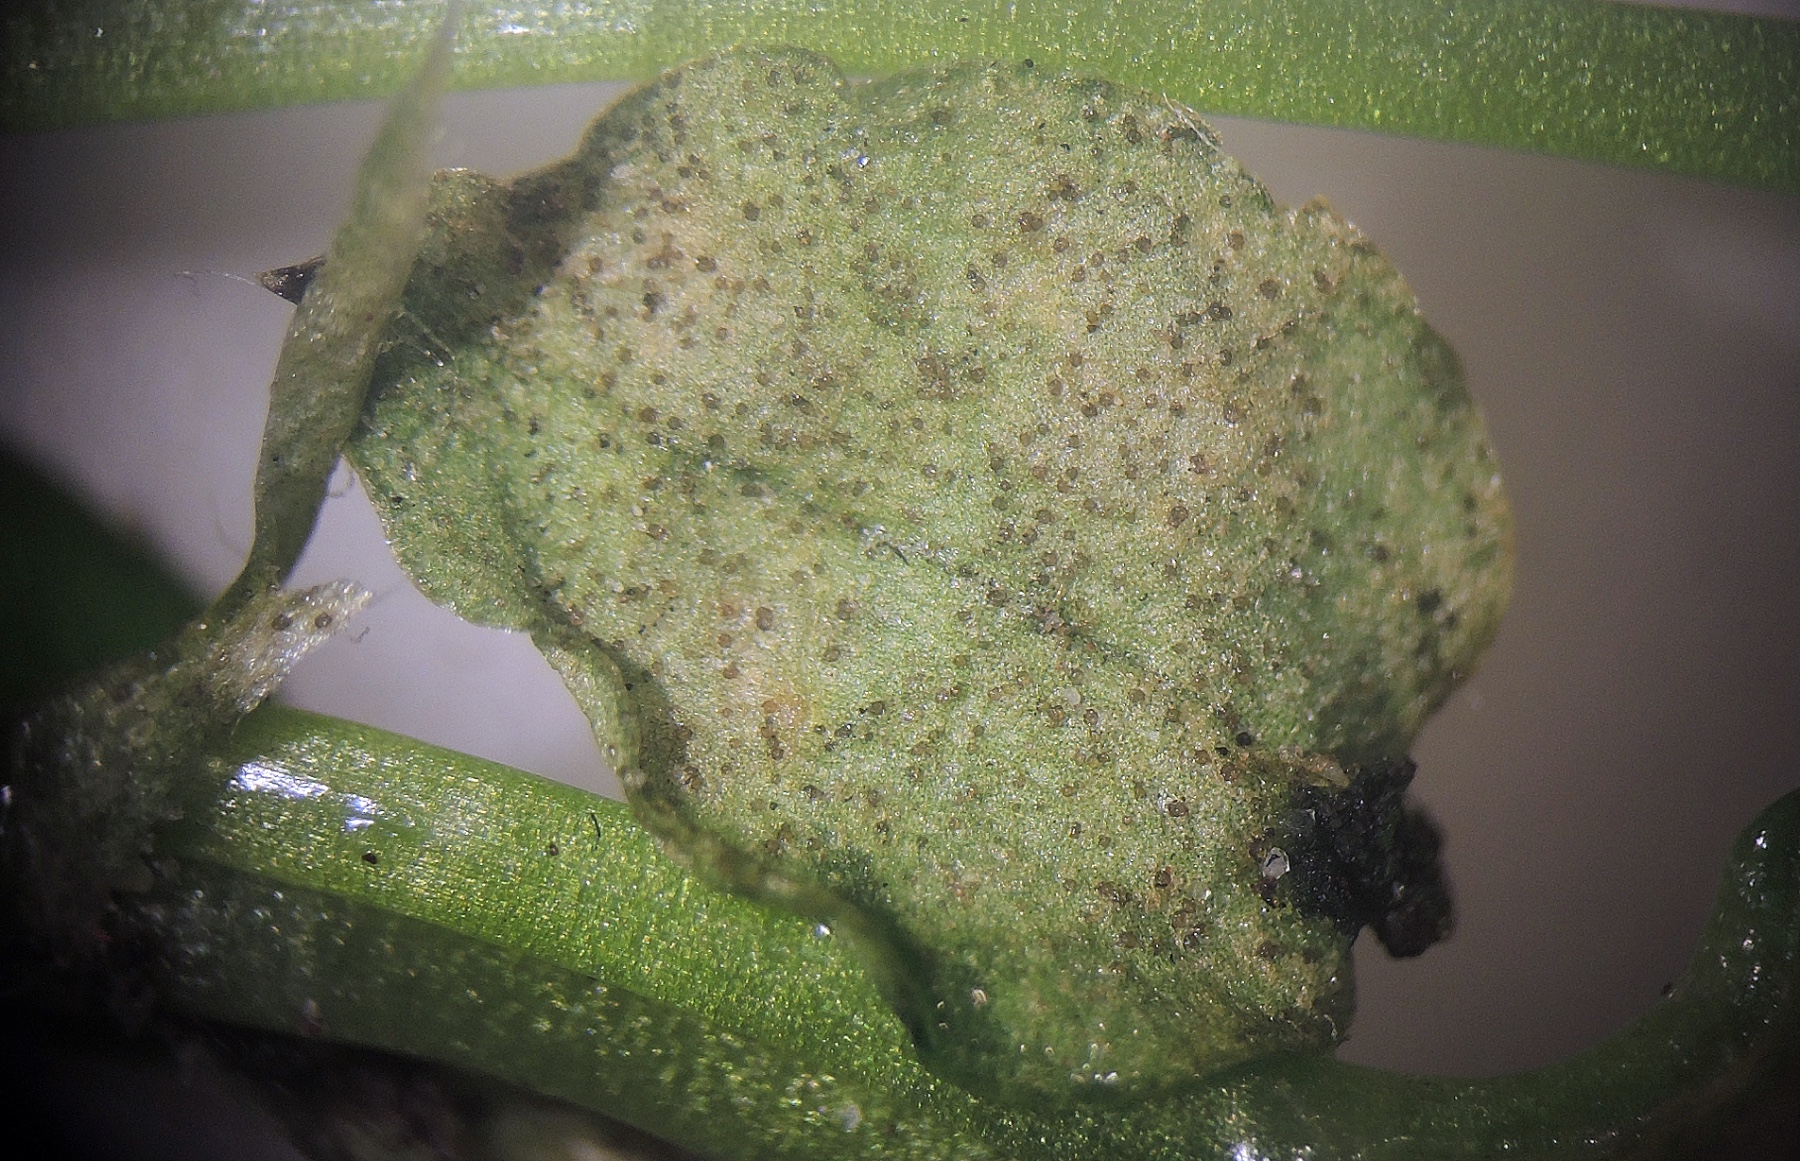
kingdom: Fungi
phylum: Ascomycota
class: Dothideomycetes
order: Mycosphaerellales
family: Mycosphaerellaceae
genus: Septoria
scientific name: Septoria stellariae
